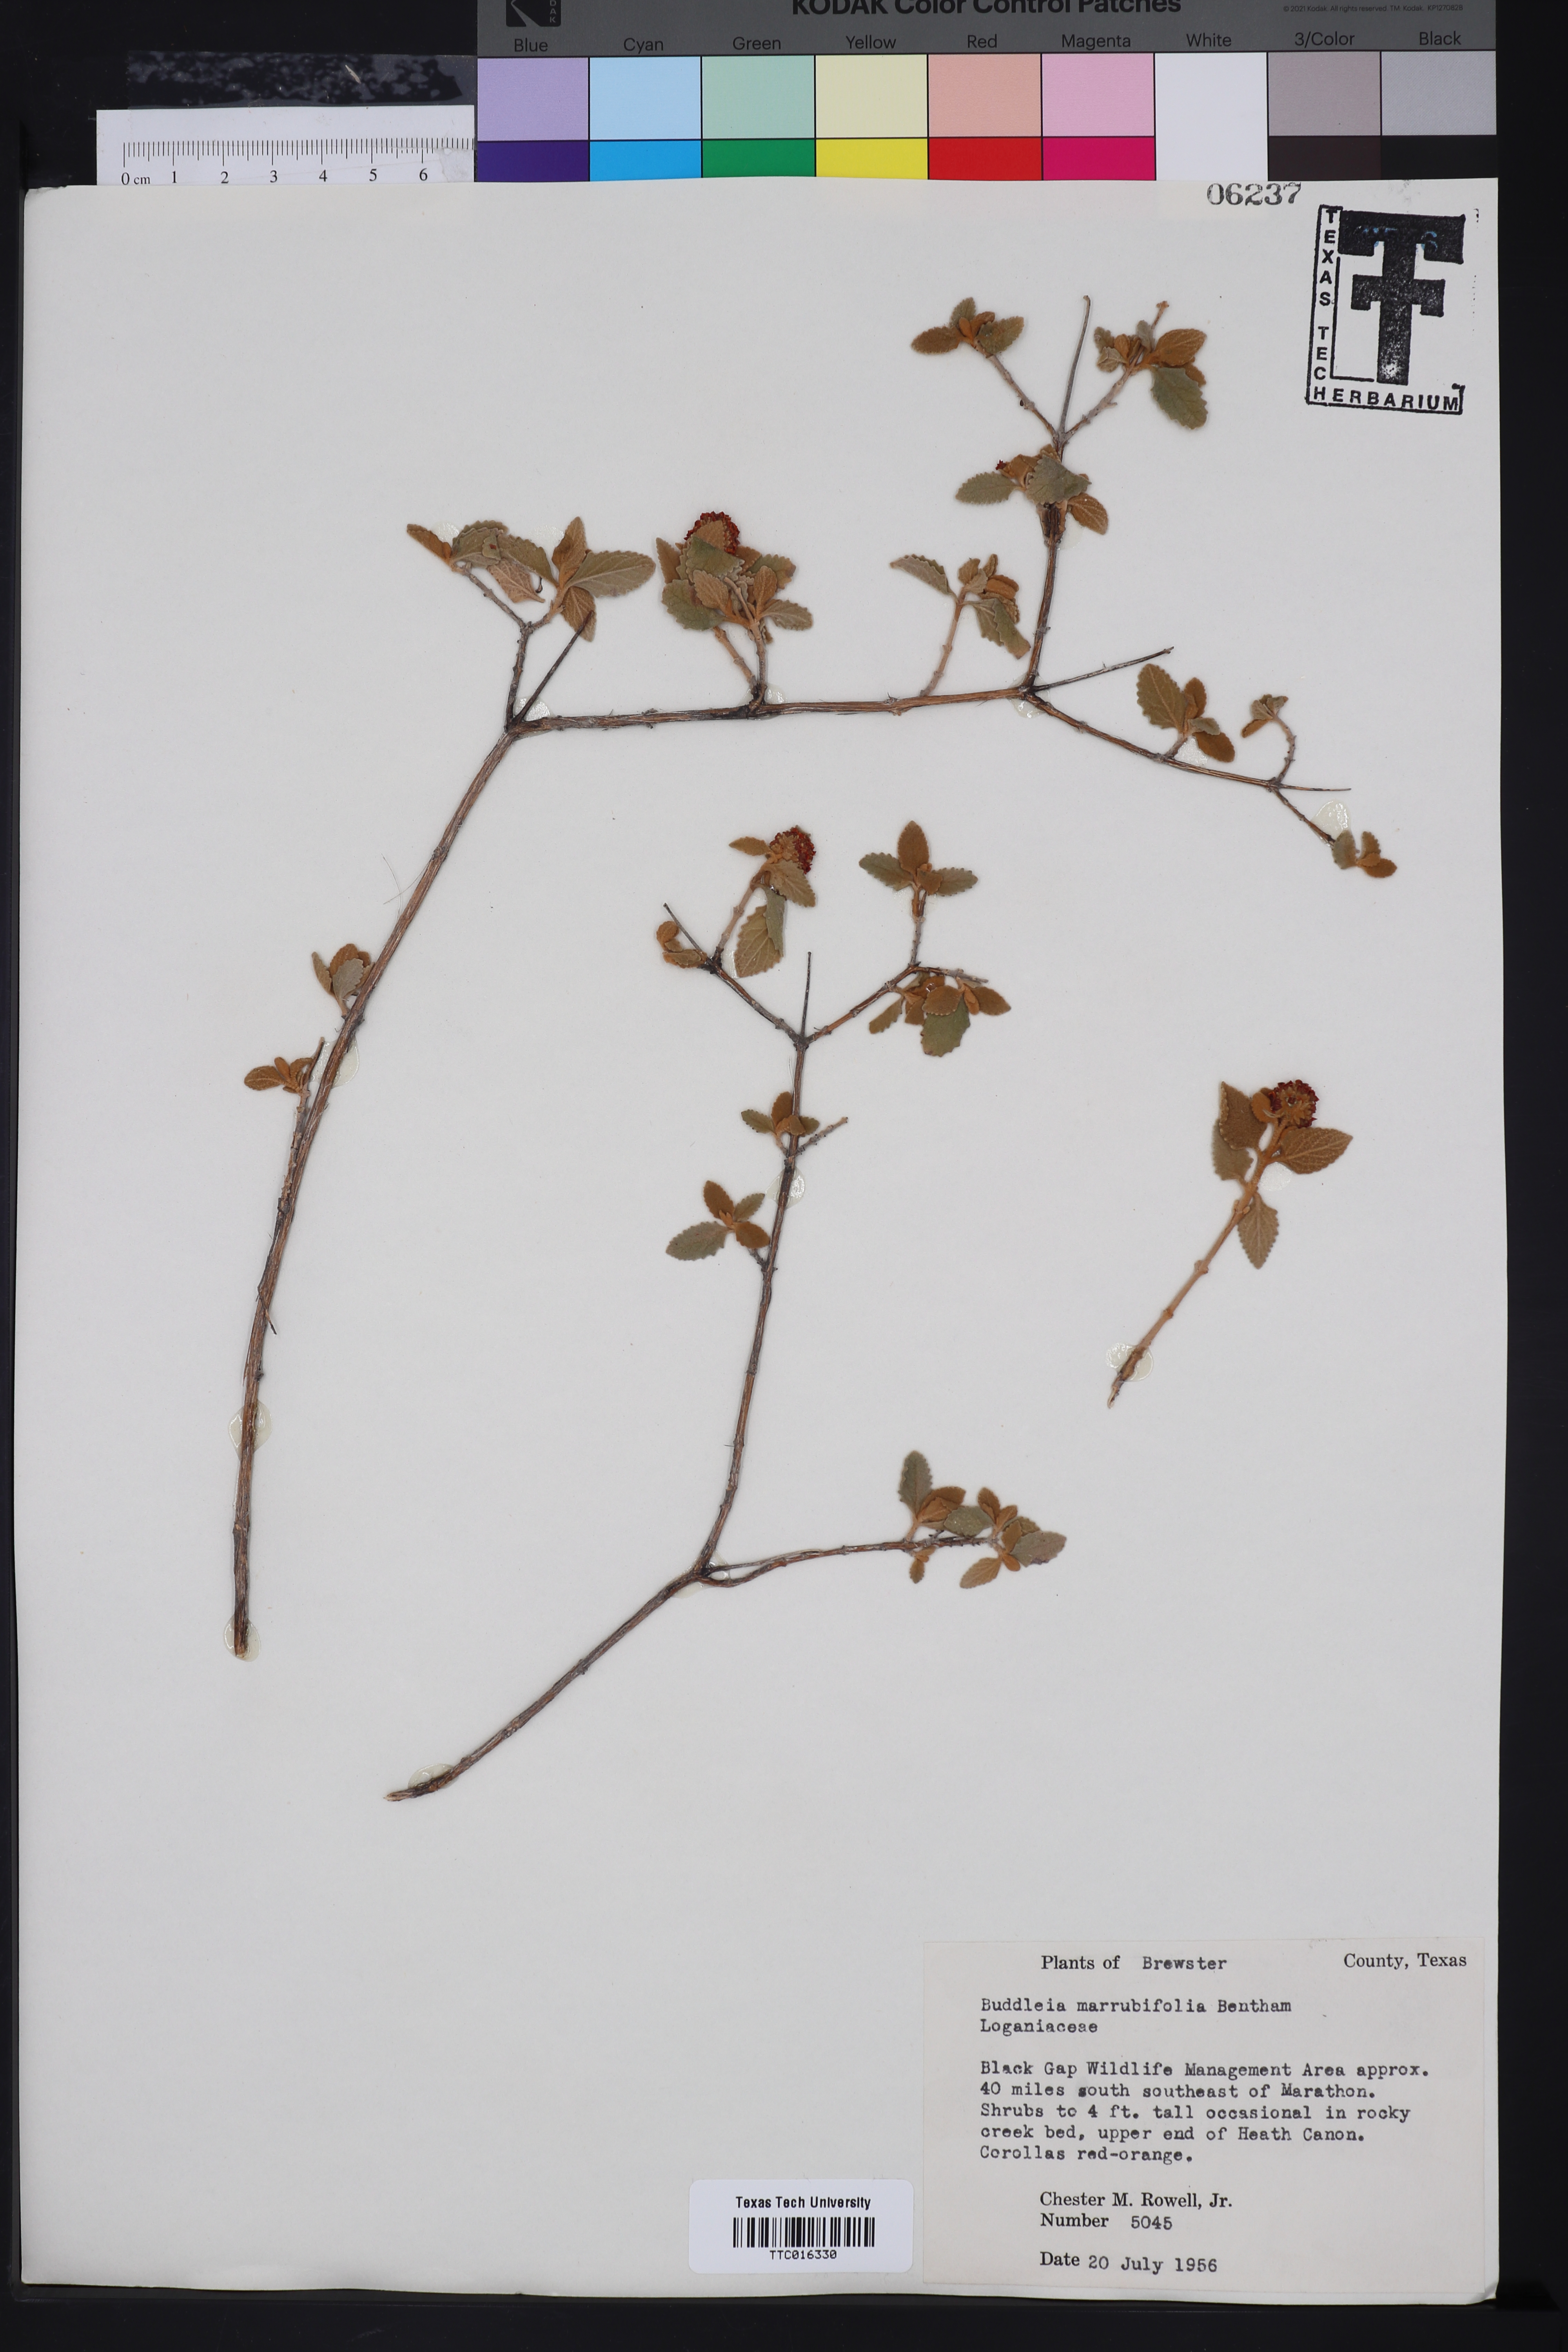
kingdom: Plantae
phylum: Tracheophyta
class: Magnoliopsida
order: Lamiales
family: Scrophulariaceae
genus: Buddleja
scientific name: Buddleja marrubiifolia
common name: Woolly butterfly-bush
